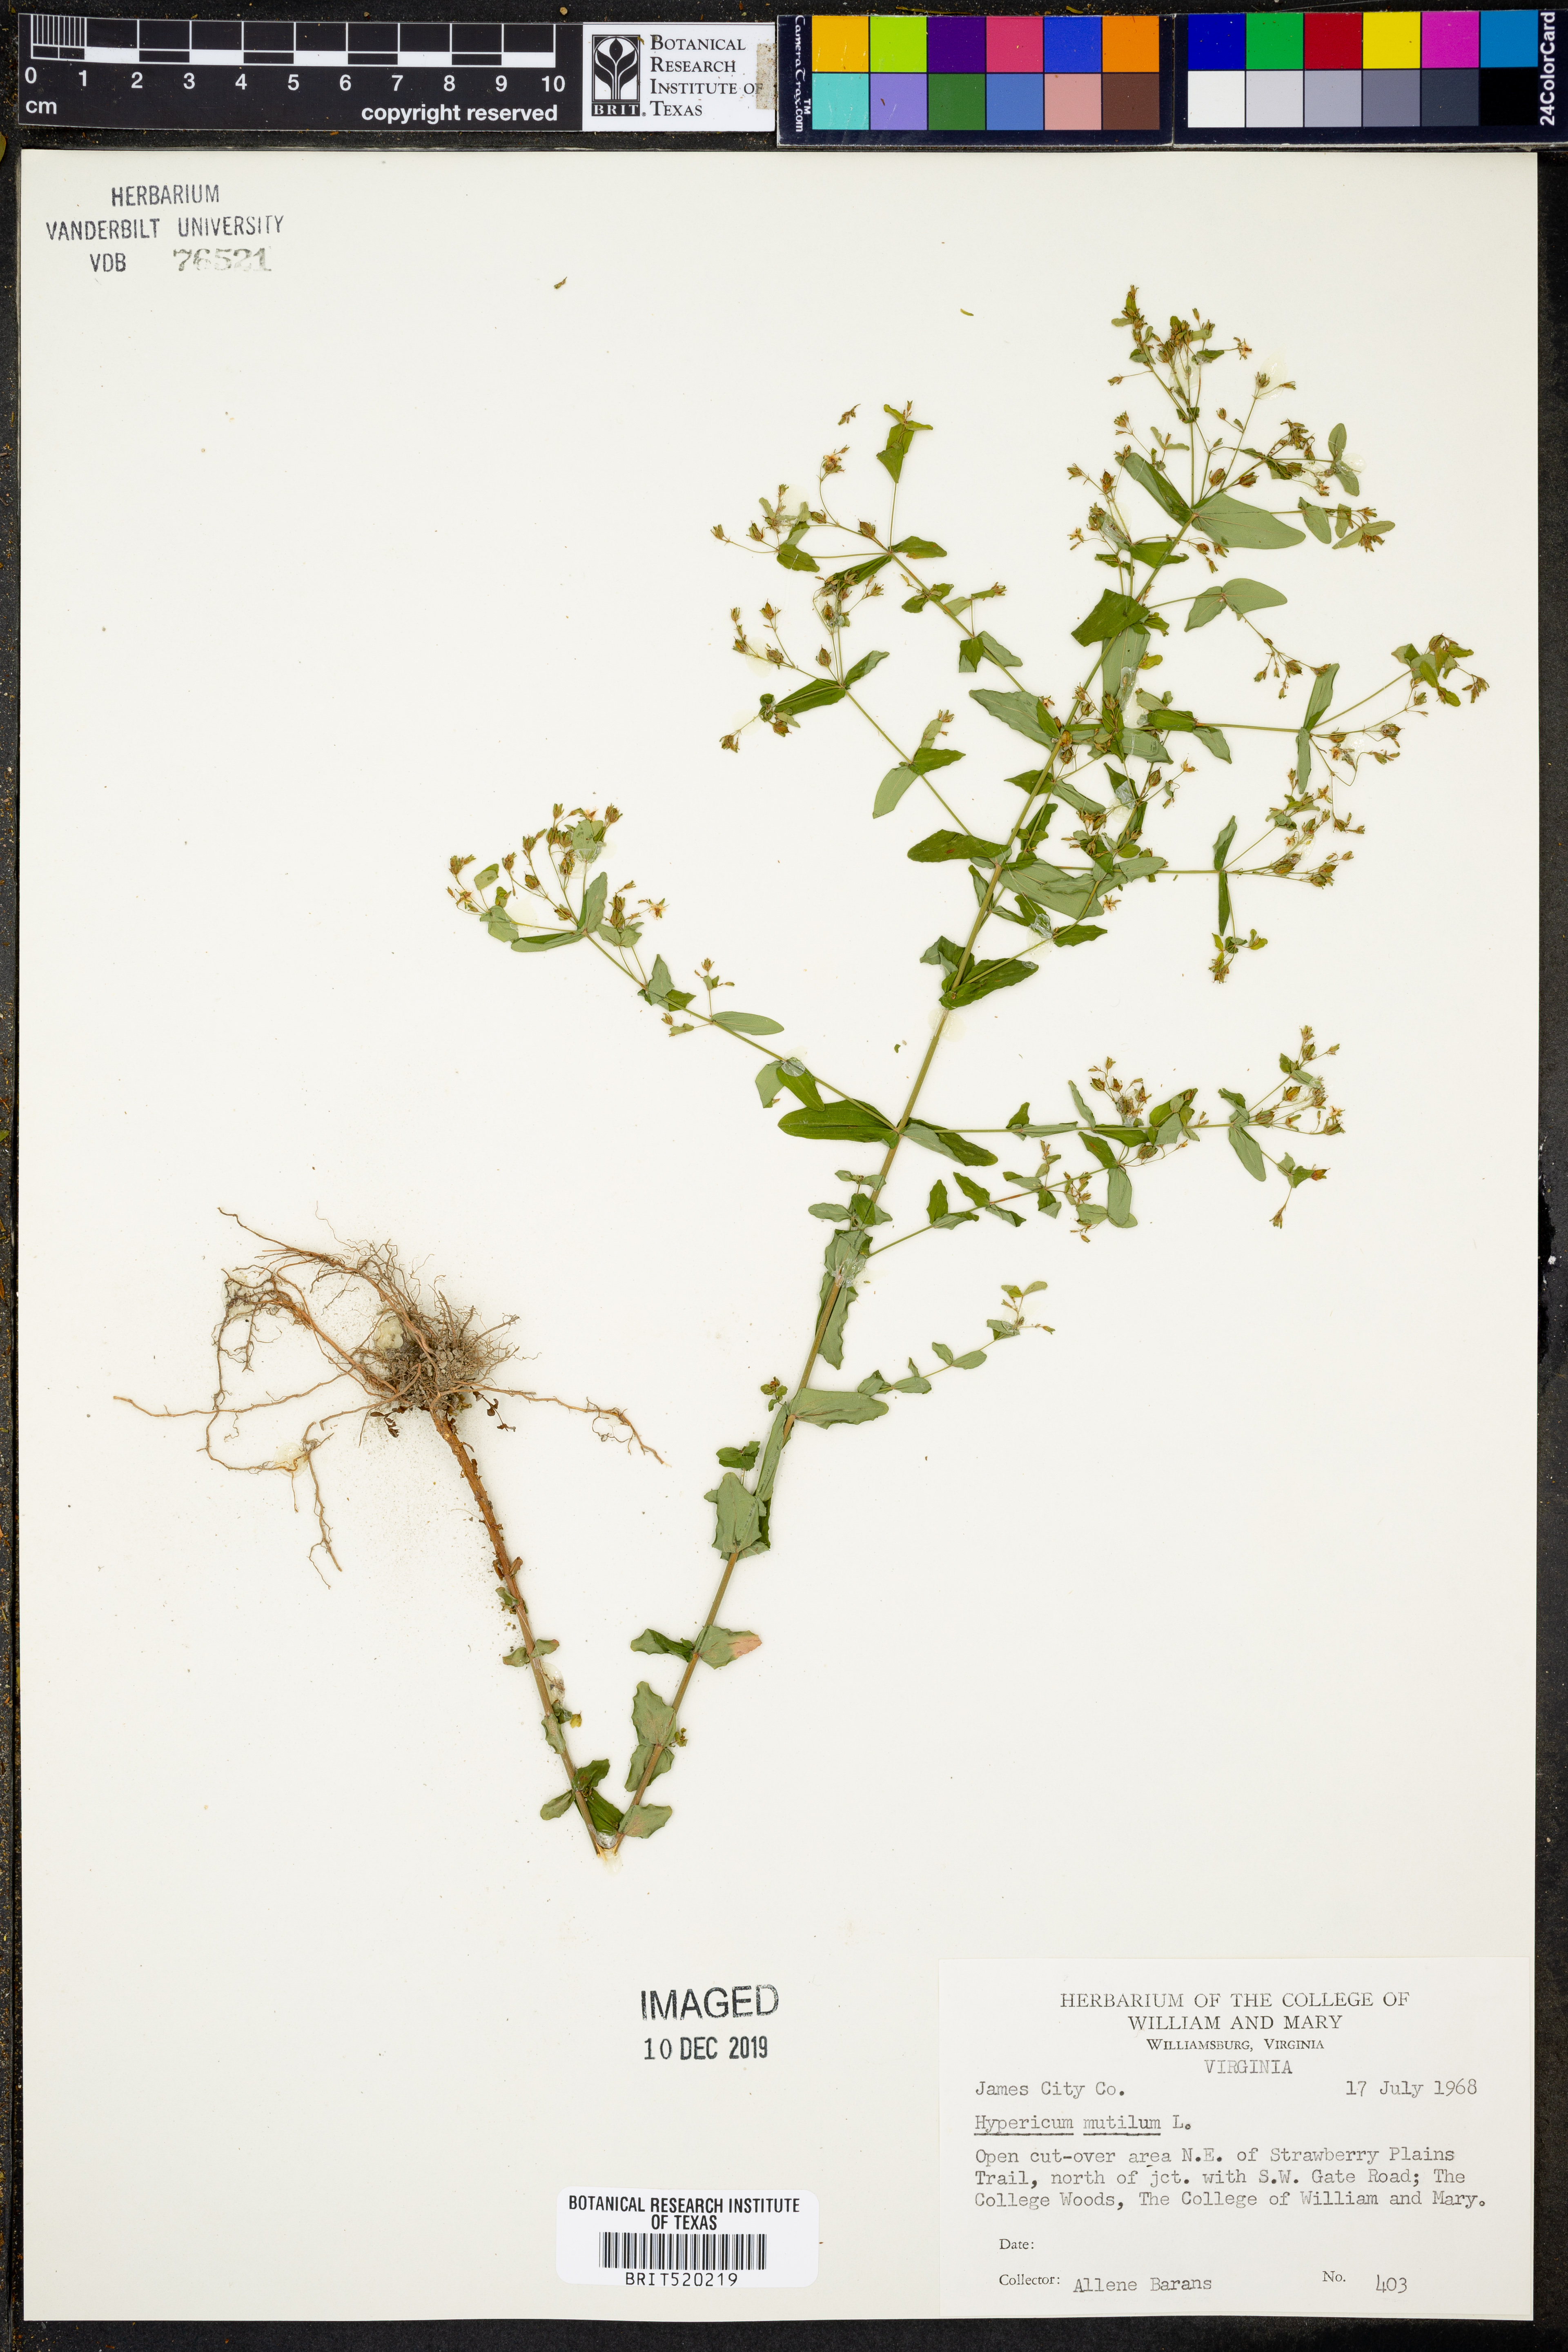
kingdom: Plantae
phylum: Tracheophyta
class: Magnoliopsida
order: Malpighiales
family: Hypericaceae
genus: Hypericum
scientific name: Hypericum mutilum
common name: Dwarf st. john's-wort
